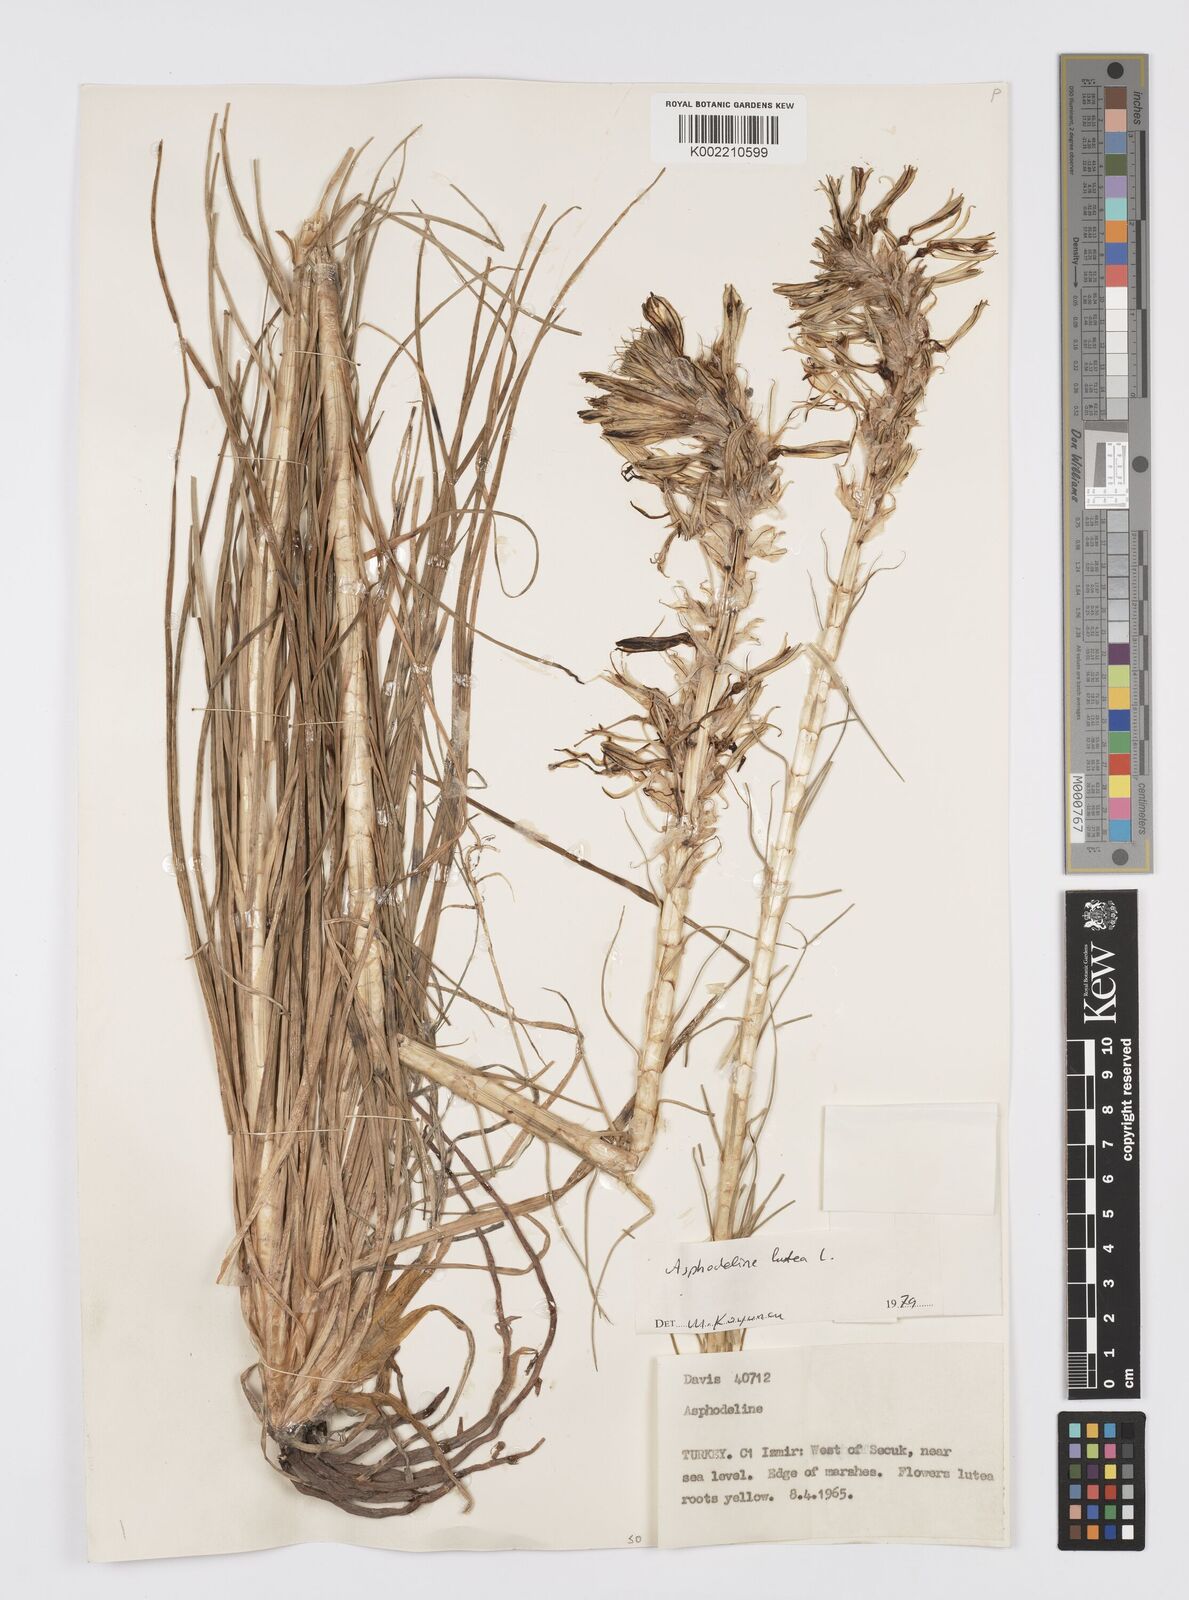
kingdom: Plantae
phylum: Tracheophyta
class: Liliopsida
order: Asparagales
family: Asphodelaceae
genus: Asphodeline
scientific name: Asphodeline lutea
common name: Yellow asphodel
